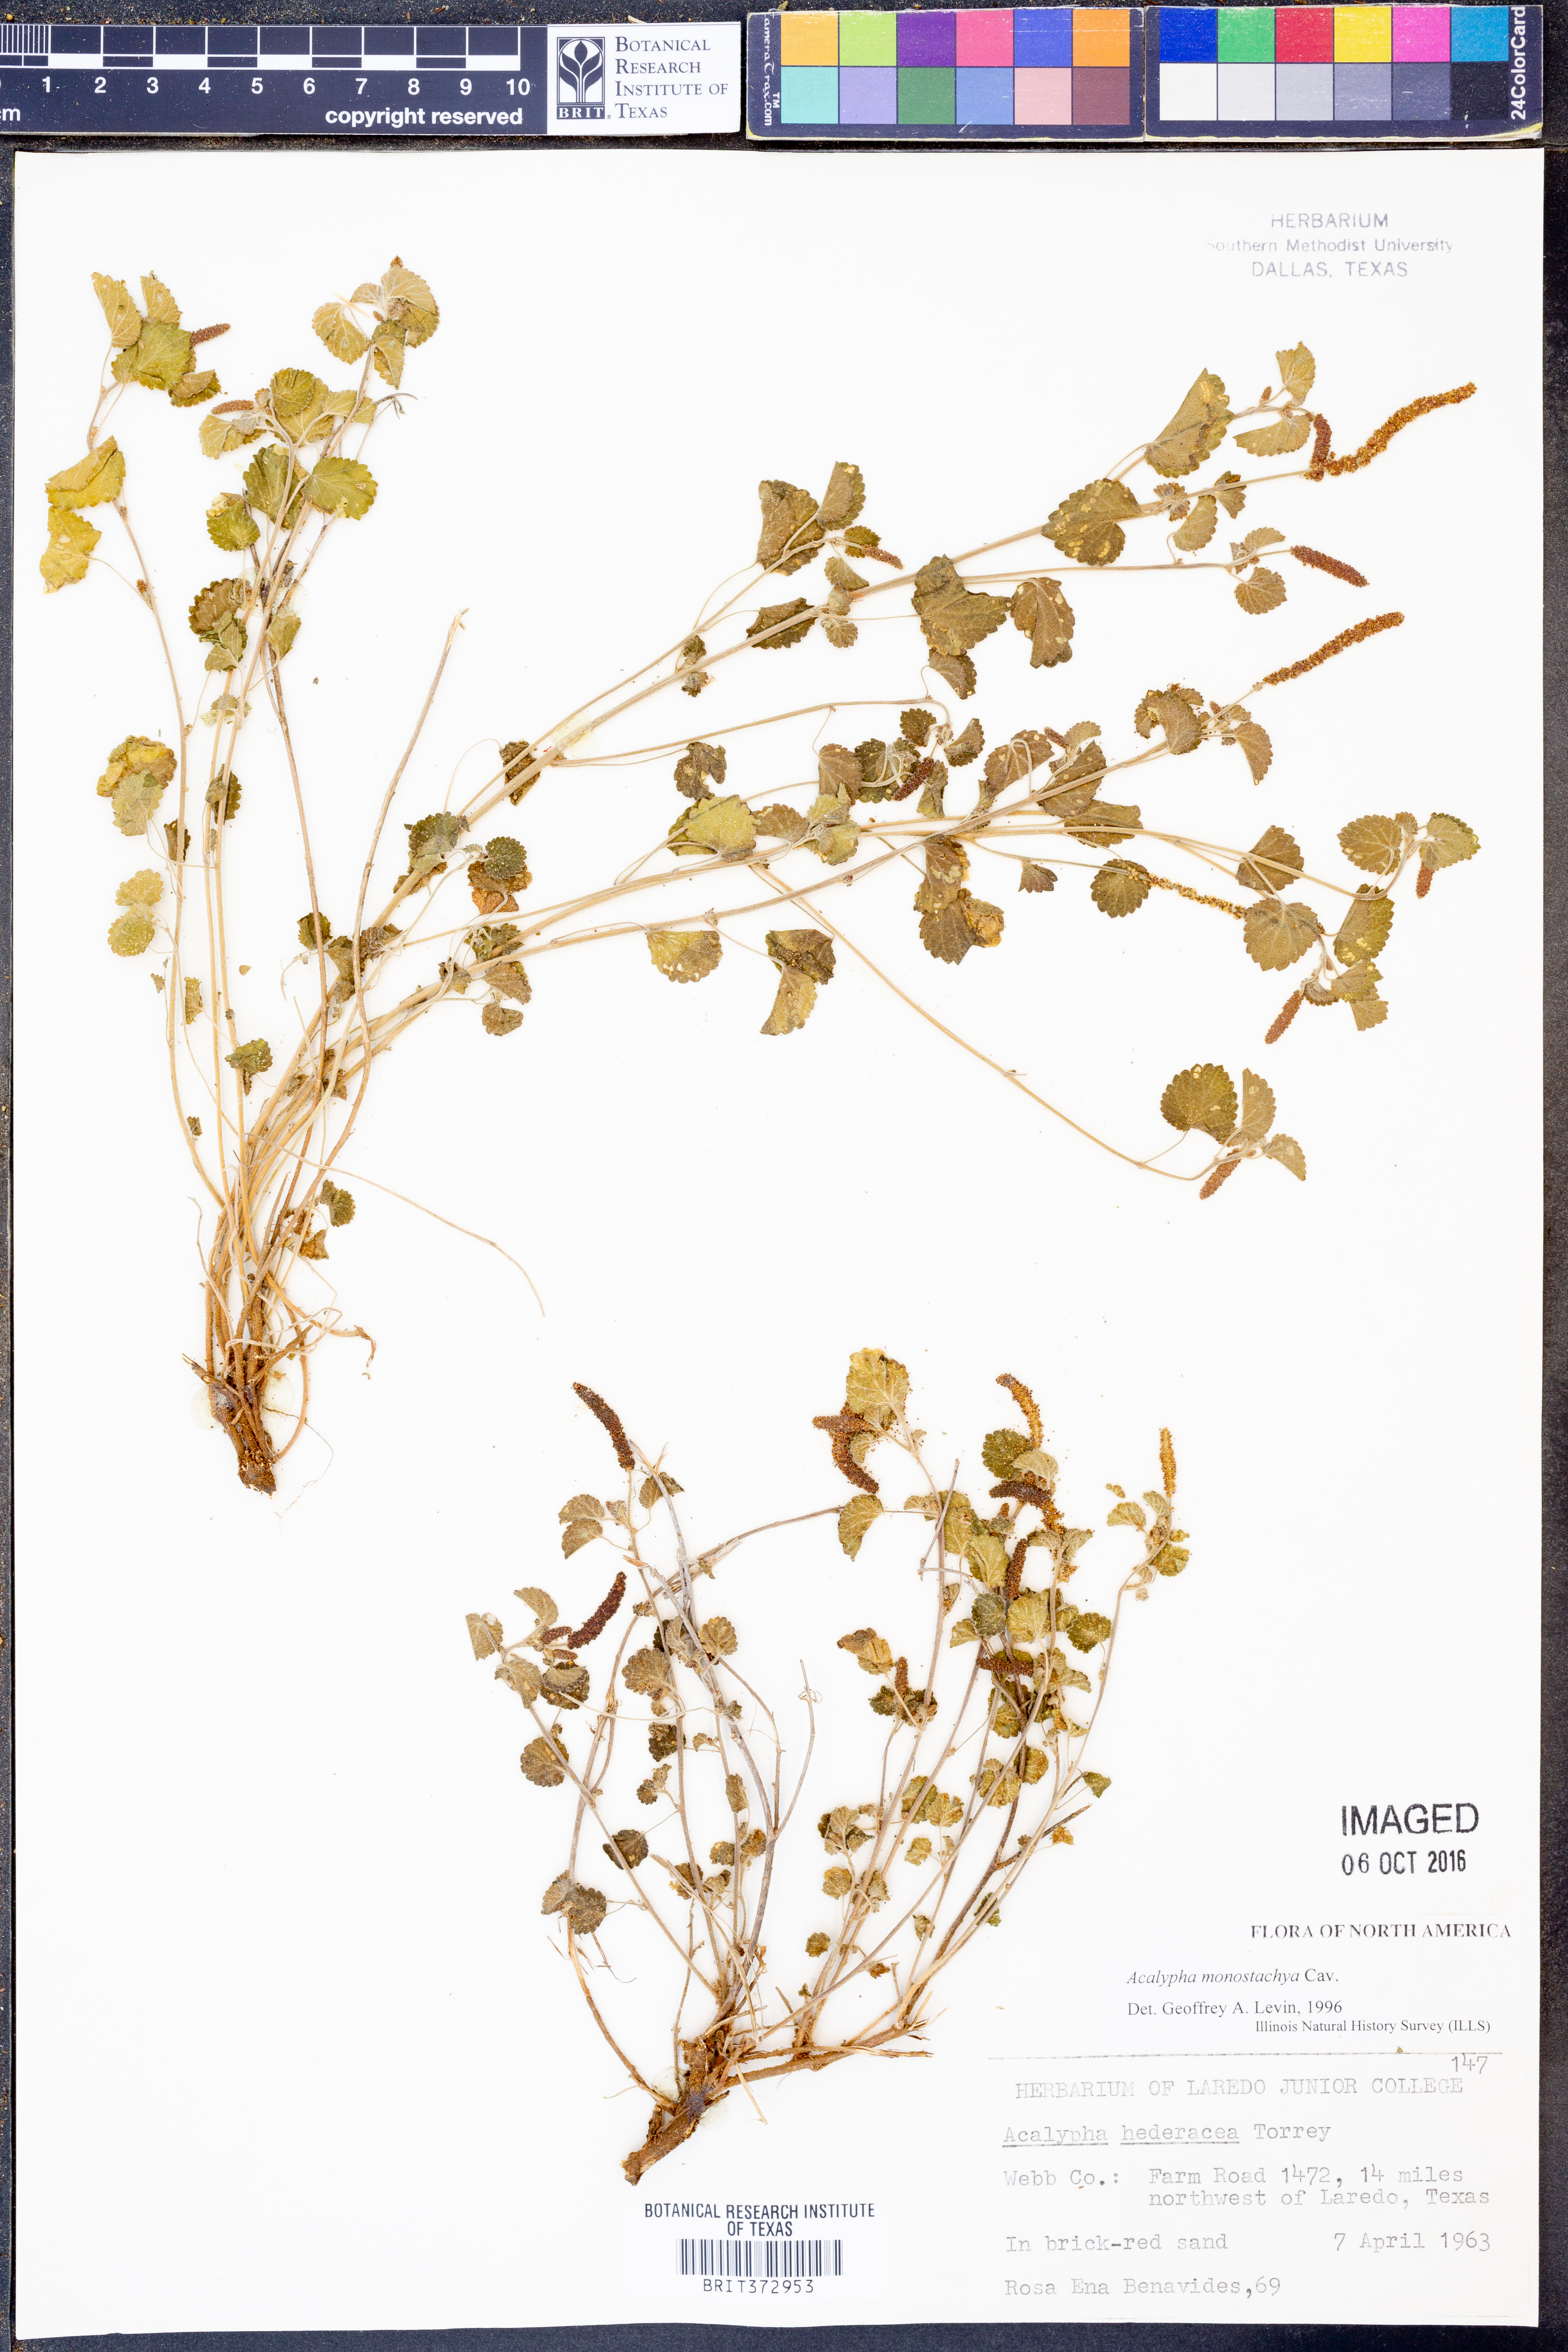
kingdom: Plantae
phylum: Tracheophyta
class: Magnoliopsida
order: Malpighiales
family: Euphorbiaceae
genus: Acalypha
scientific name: Acalypha monostachya
